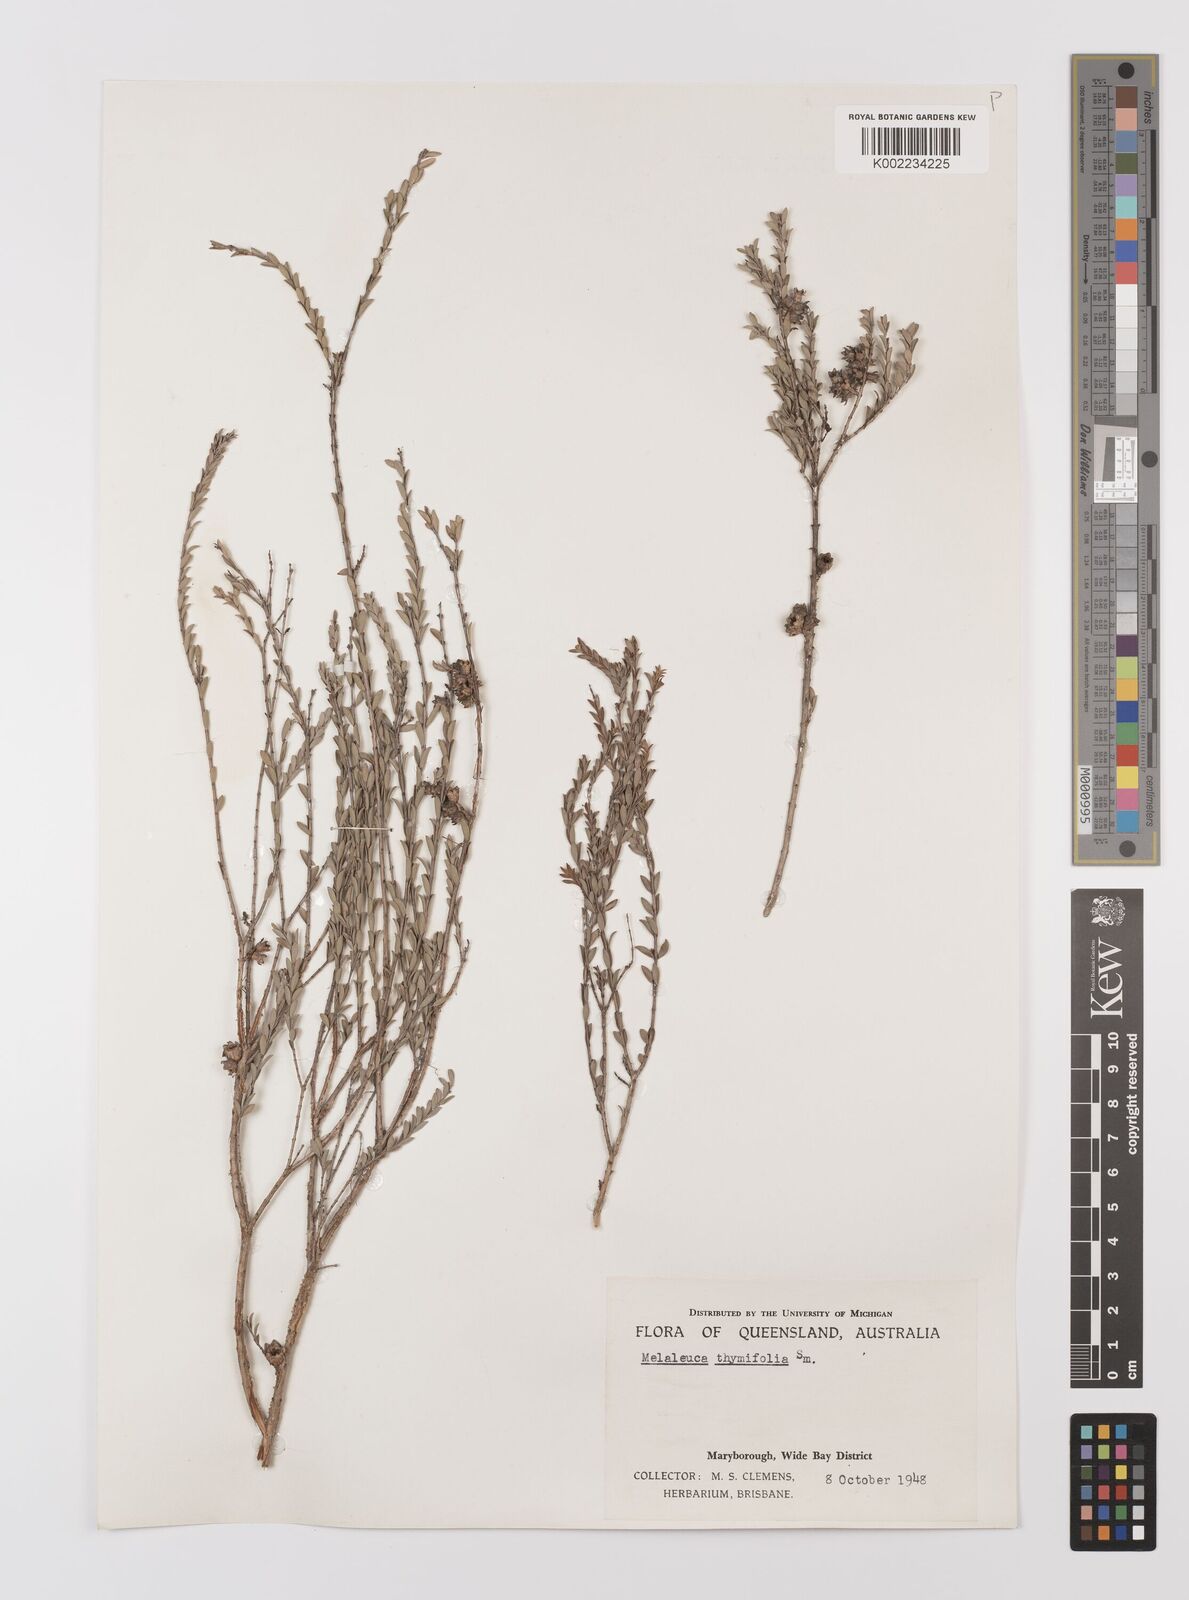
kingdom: Plantae
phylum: Tracheophyta
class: Magnoliopsida
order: Myrtales
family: Myrtaceae
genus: Melaleuca
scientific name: Melaleuca thymifolia
